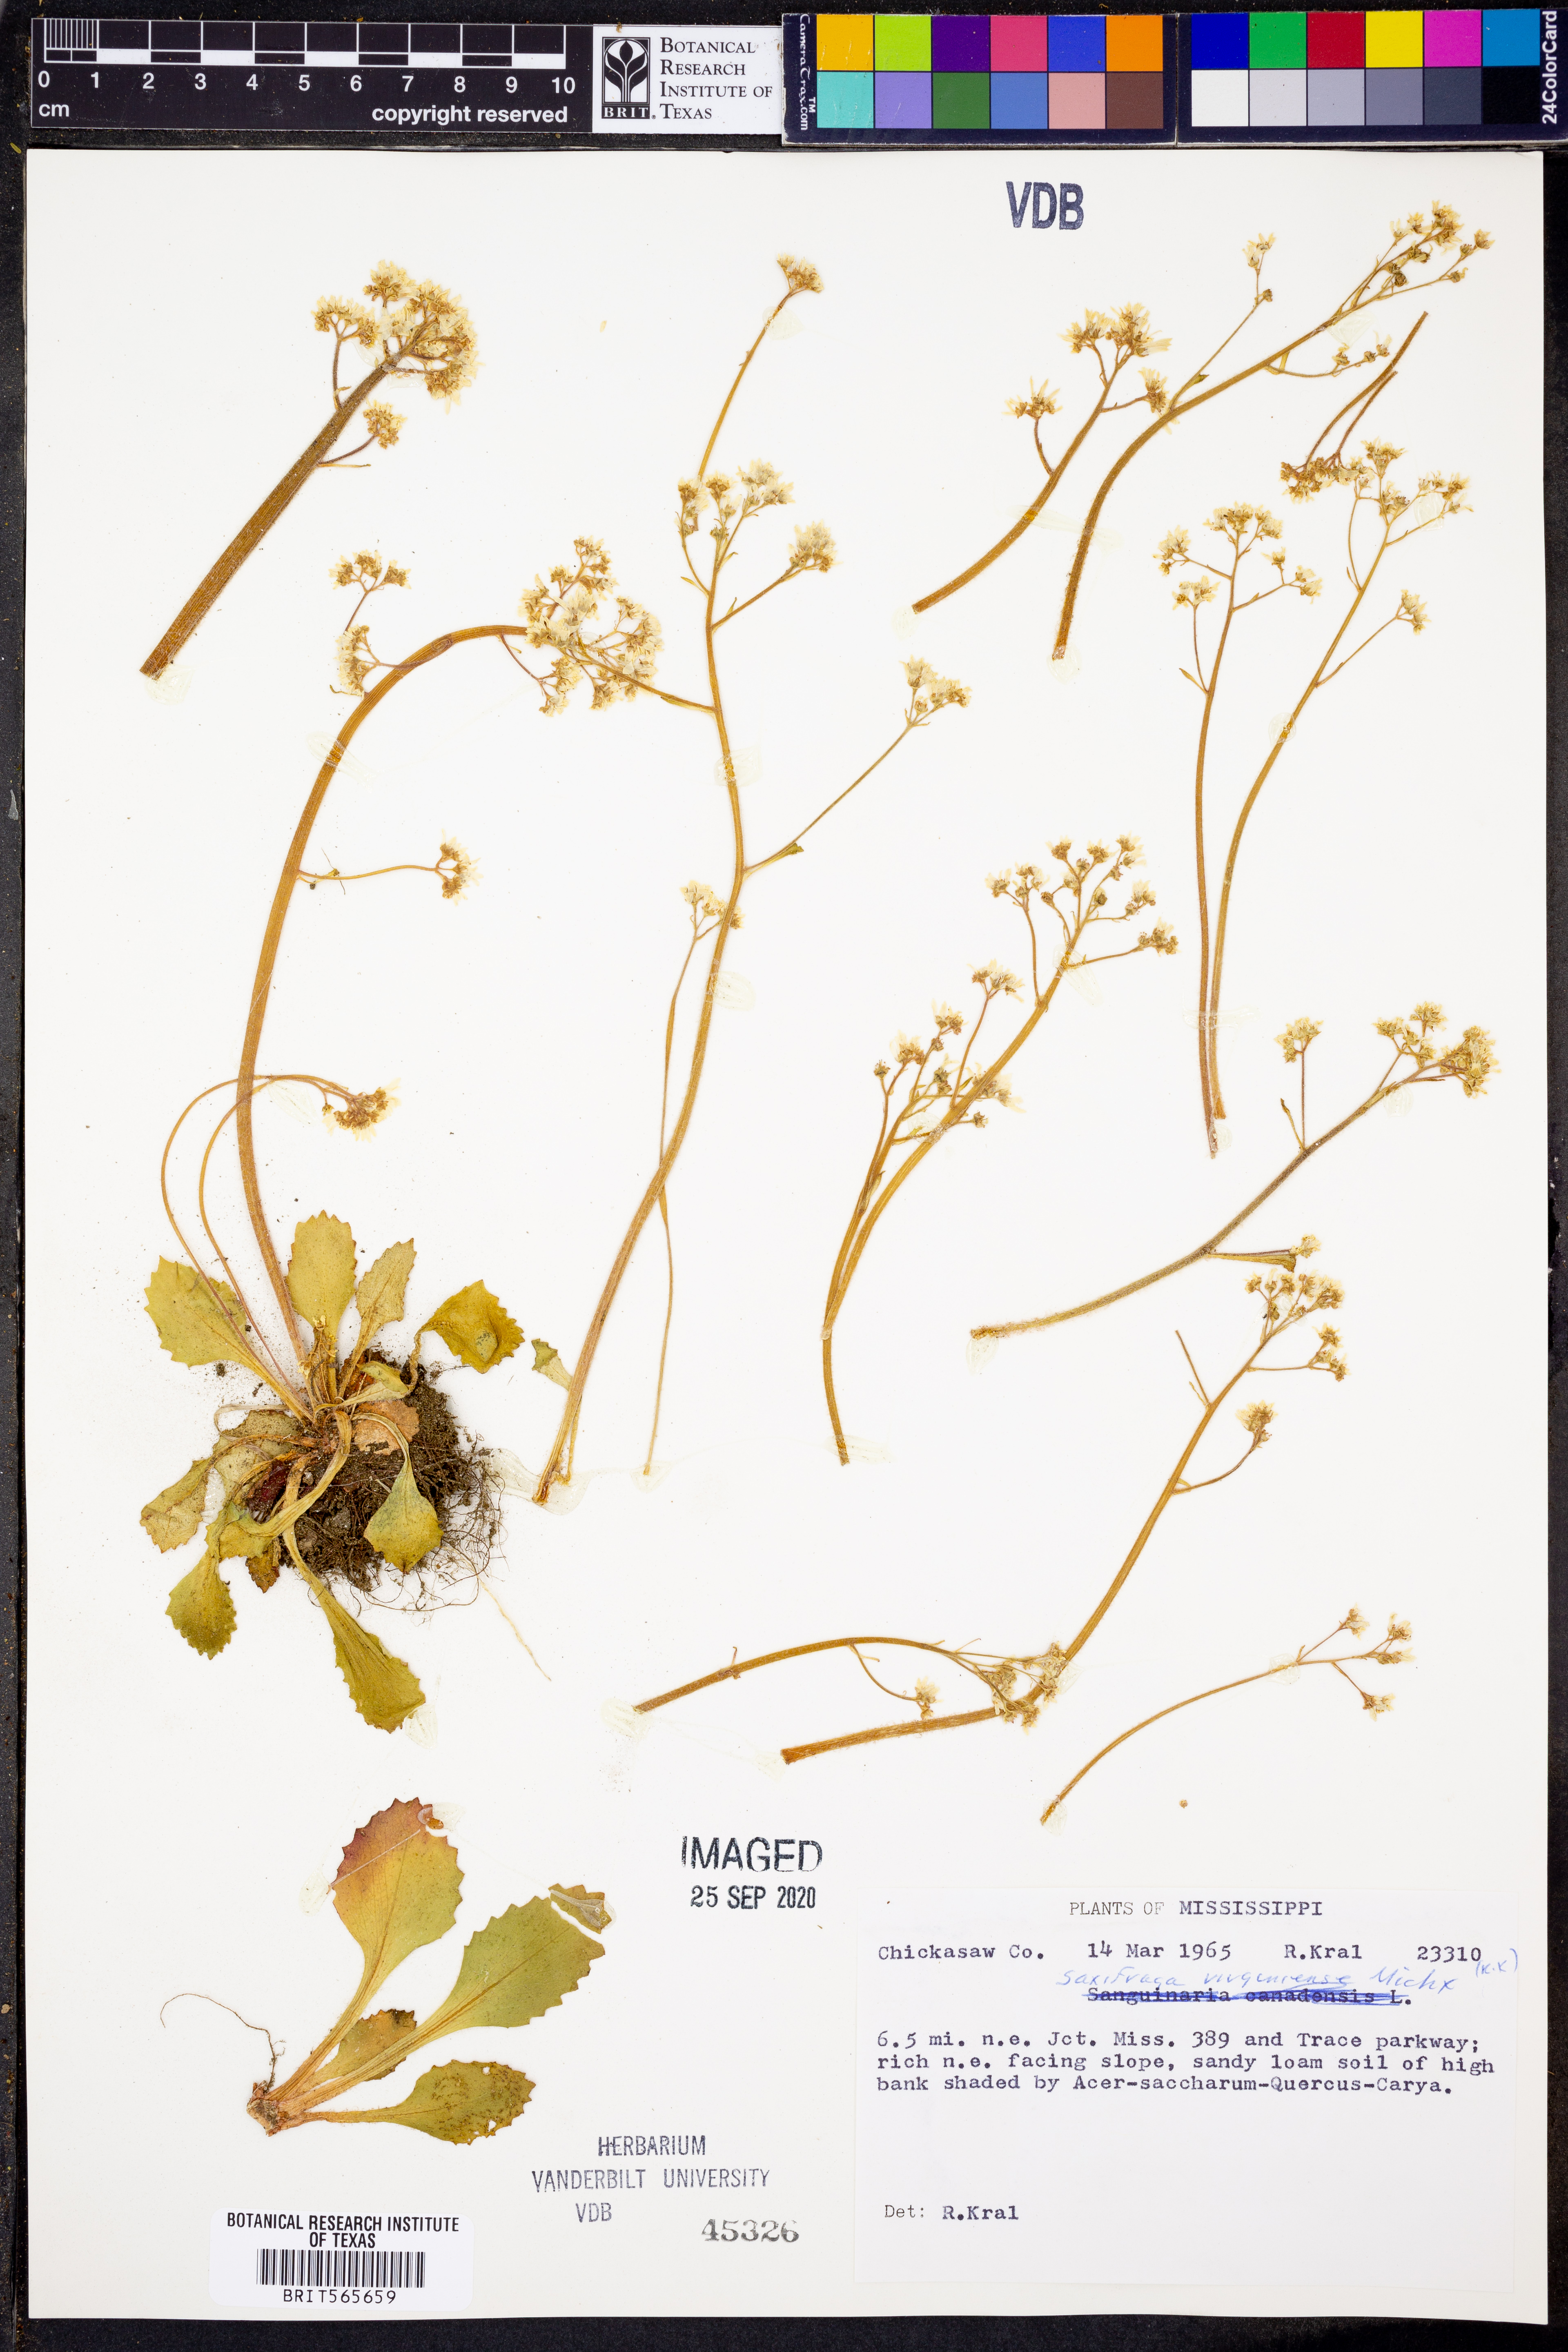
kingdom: Plantae
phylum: Tracheophyta
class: Magnoliopsida
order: Saxifragales
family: Saxifragaceae
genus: Micranthes
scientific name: Micranthes virginiensis
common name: Early saxifrage
